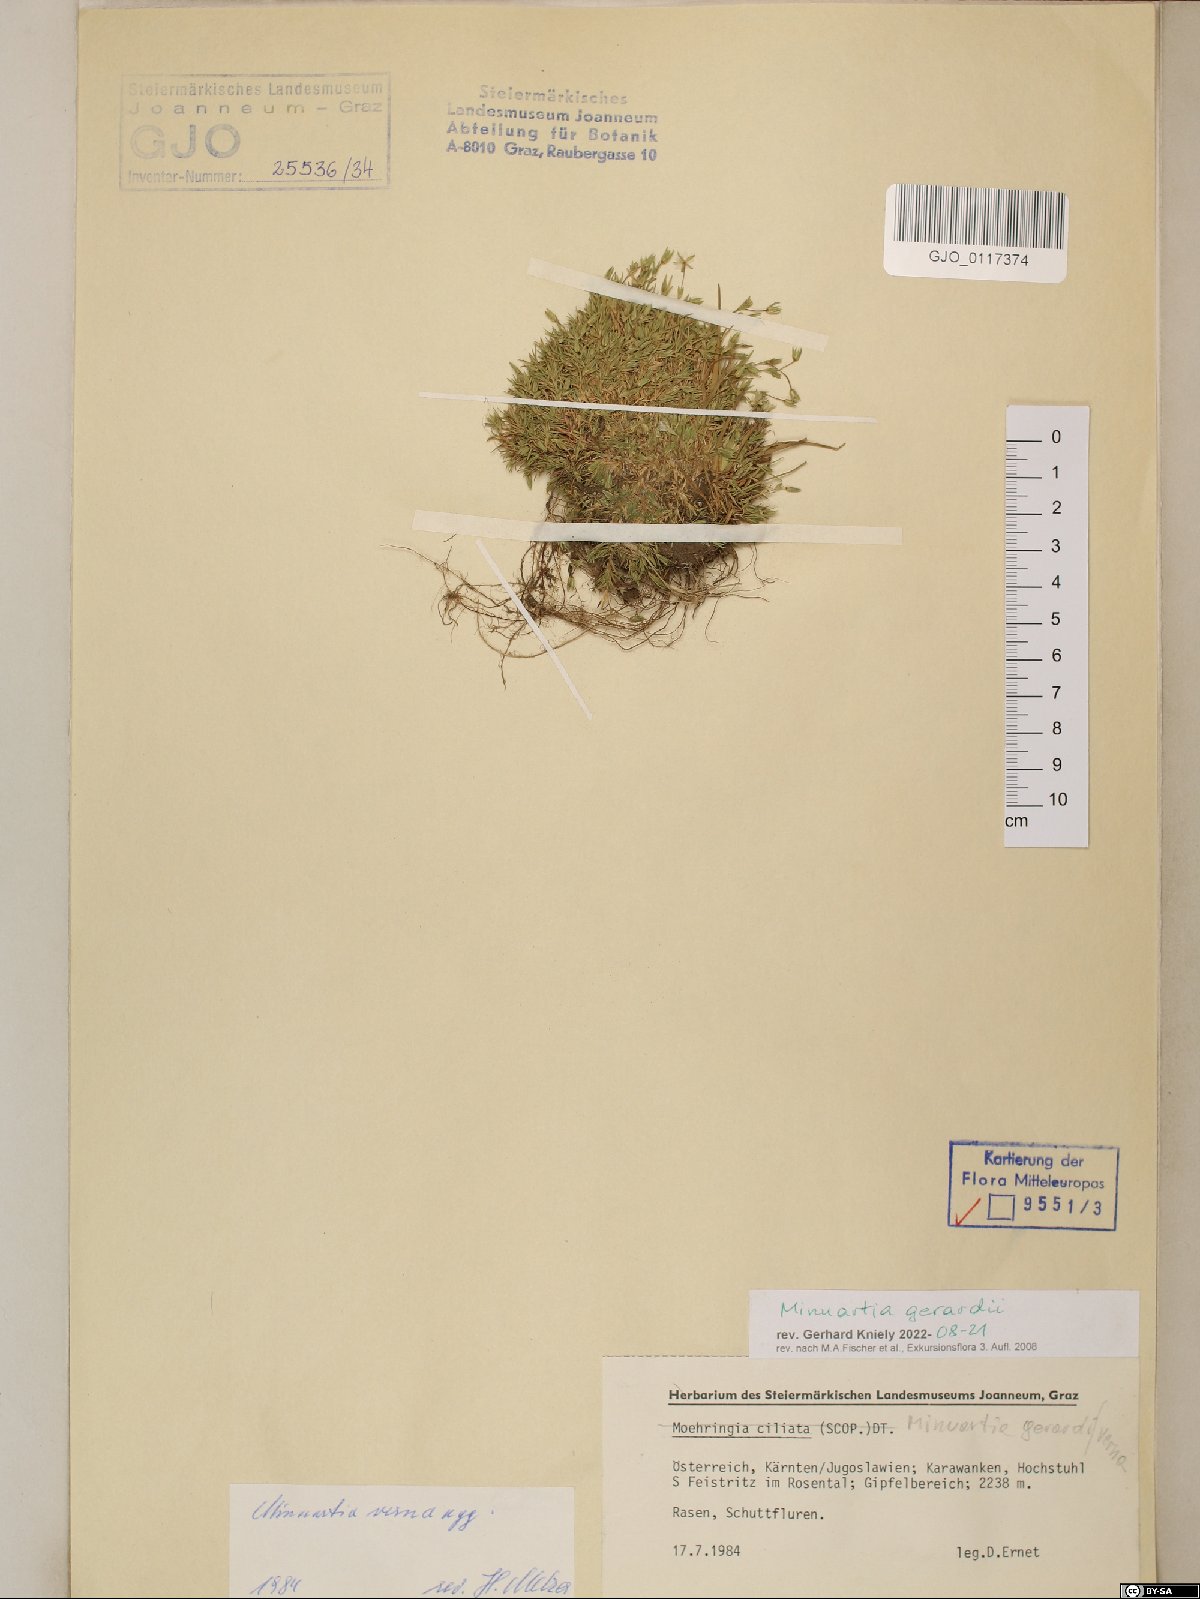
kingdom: Plantae
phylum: Tracheophyta
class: Magnoliopsida
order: Caryophyllales
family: Caryophyllaceae
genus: Sabulina
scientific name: Sabulina verna
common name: Spring sandwort
